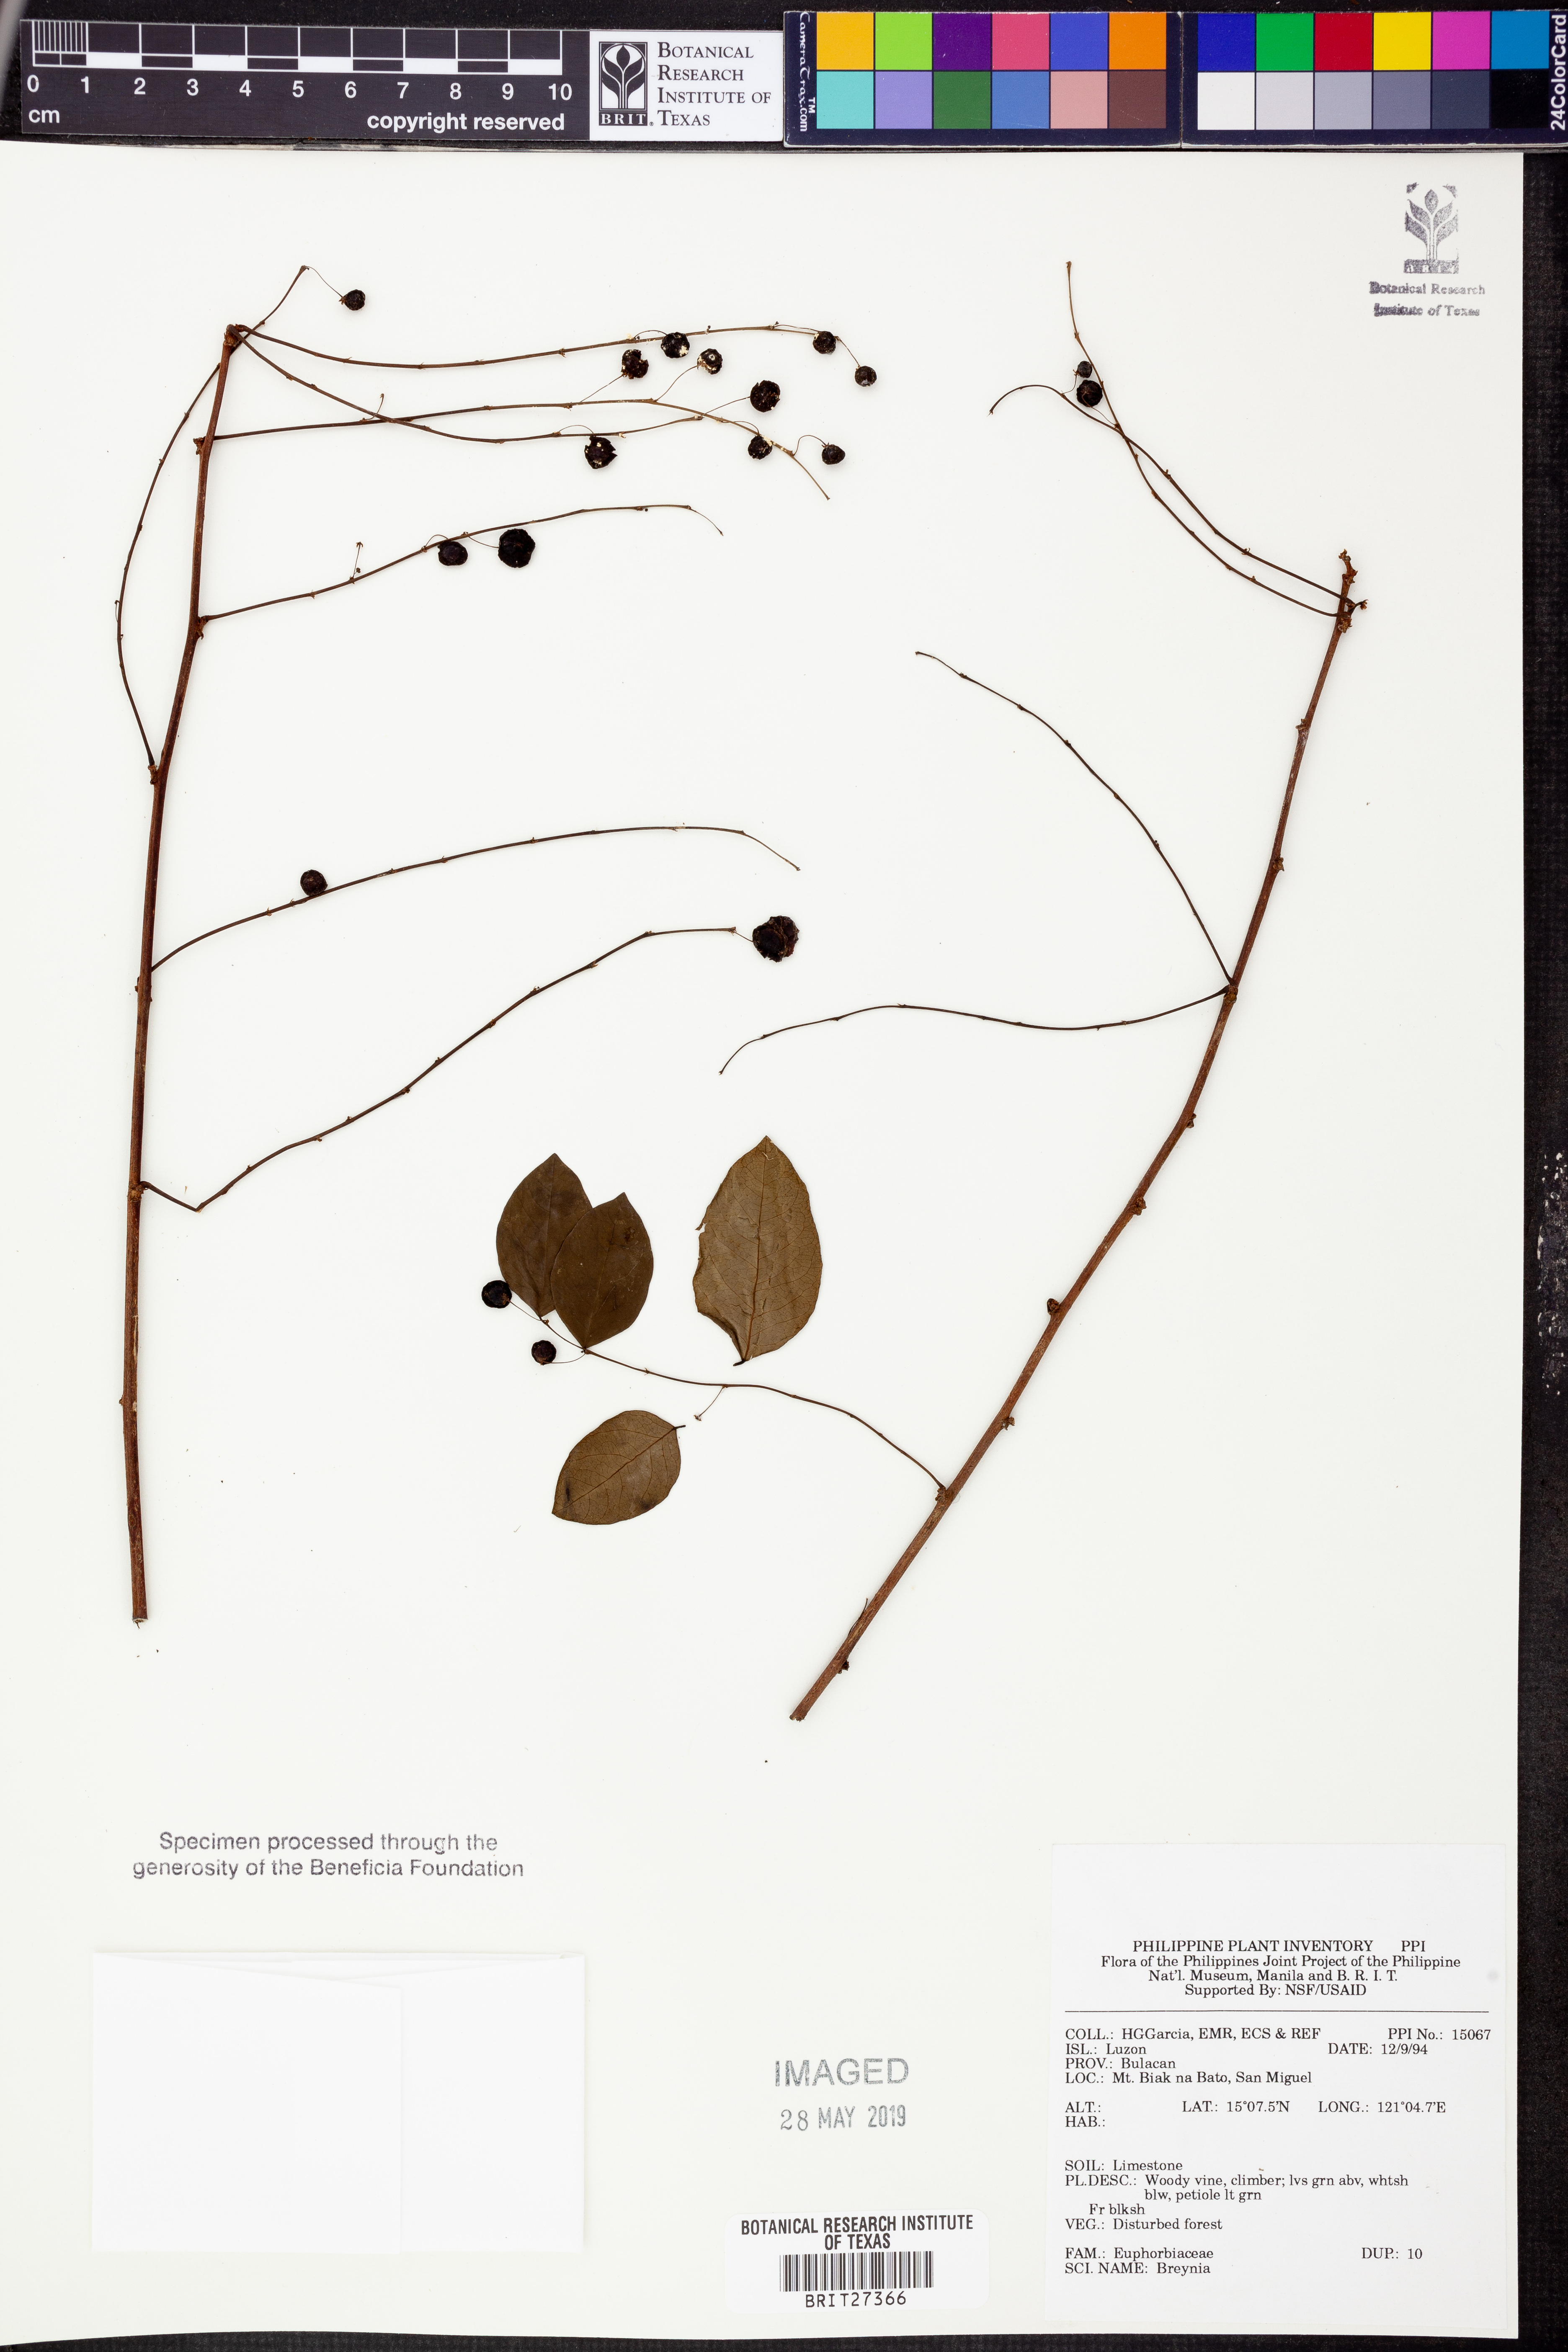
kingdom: Plantae
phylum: Tracheophyta
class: Magnoliopsida
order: Malpighiales
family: Phyllanthaceae
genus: Breynia
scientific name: Breynia
